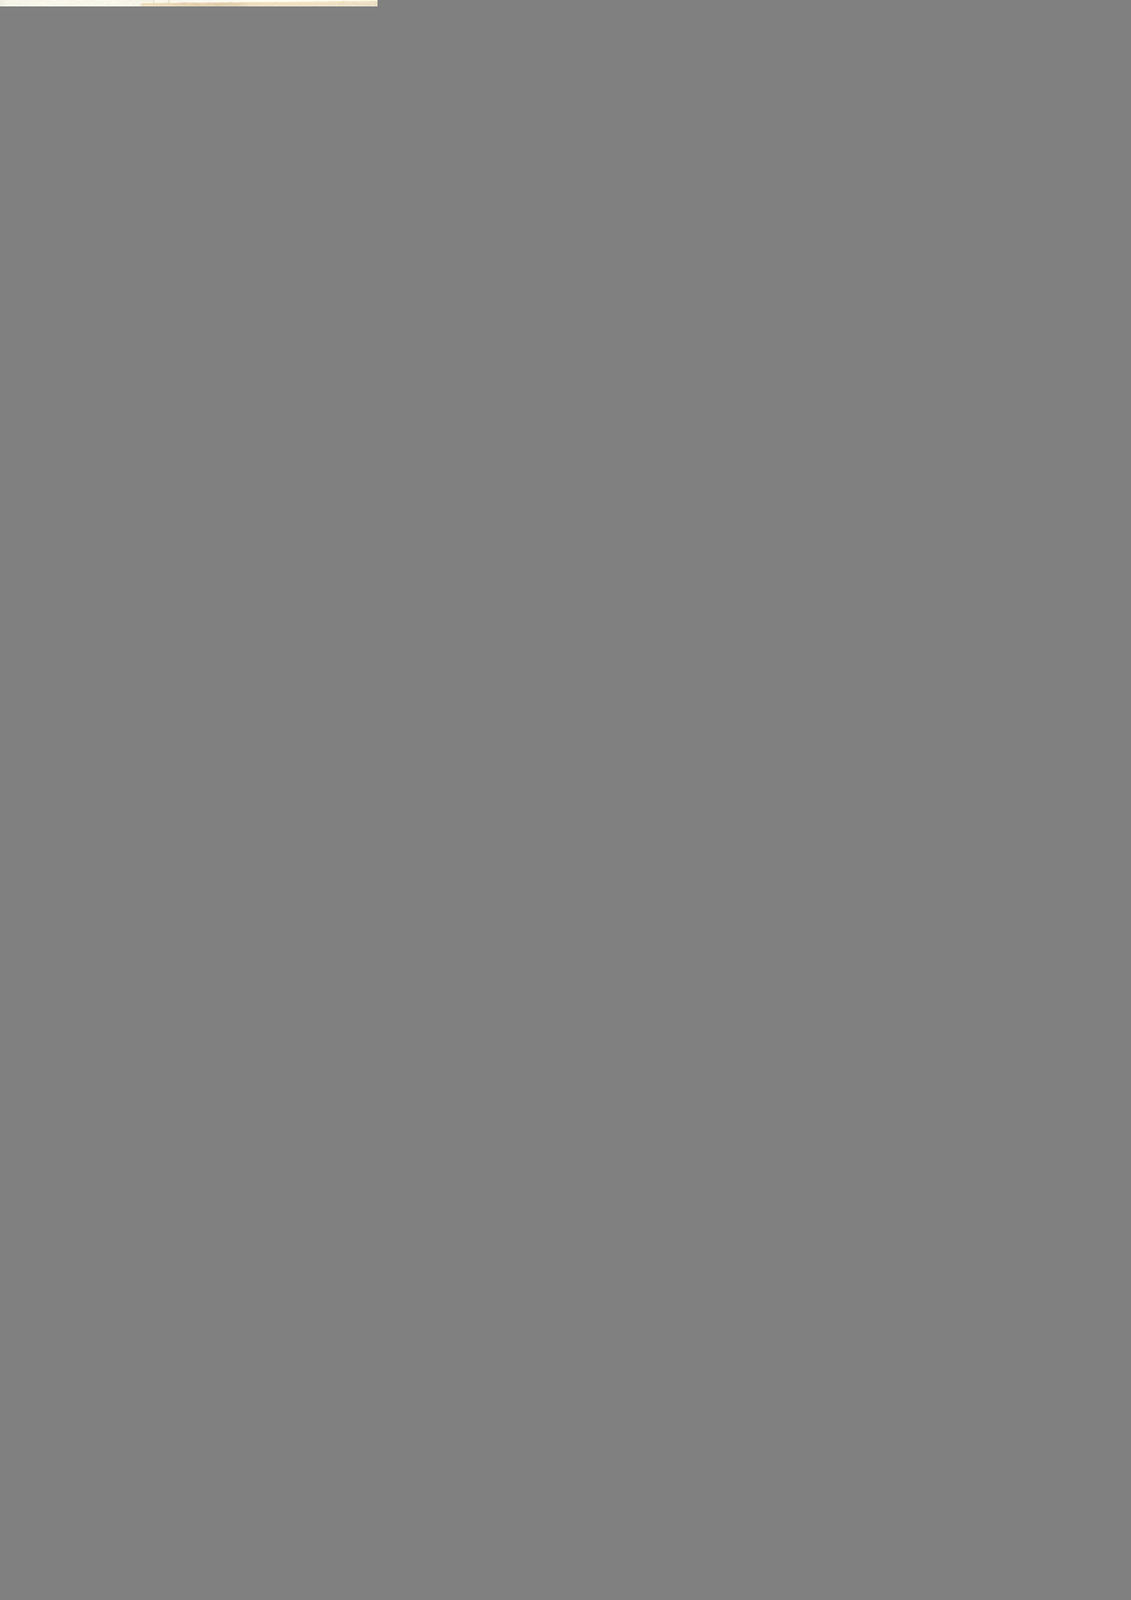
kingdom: Plantae
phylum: Tracheophyta
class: Magnoliopsida
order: Asterales
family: Asteraceae
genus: Baccharis
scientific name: Baccharis latifolia
